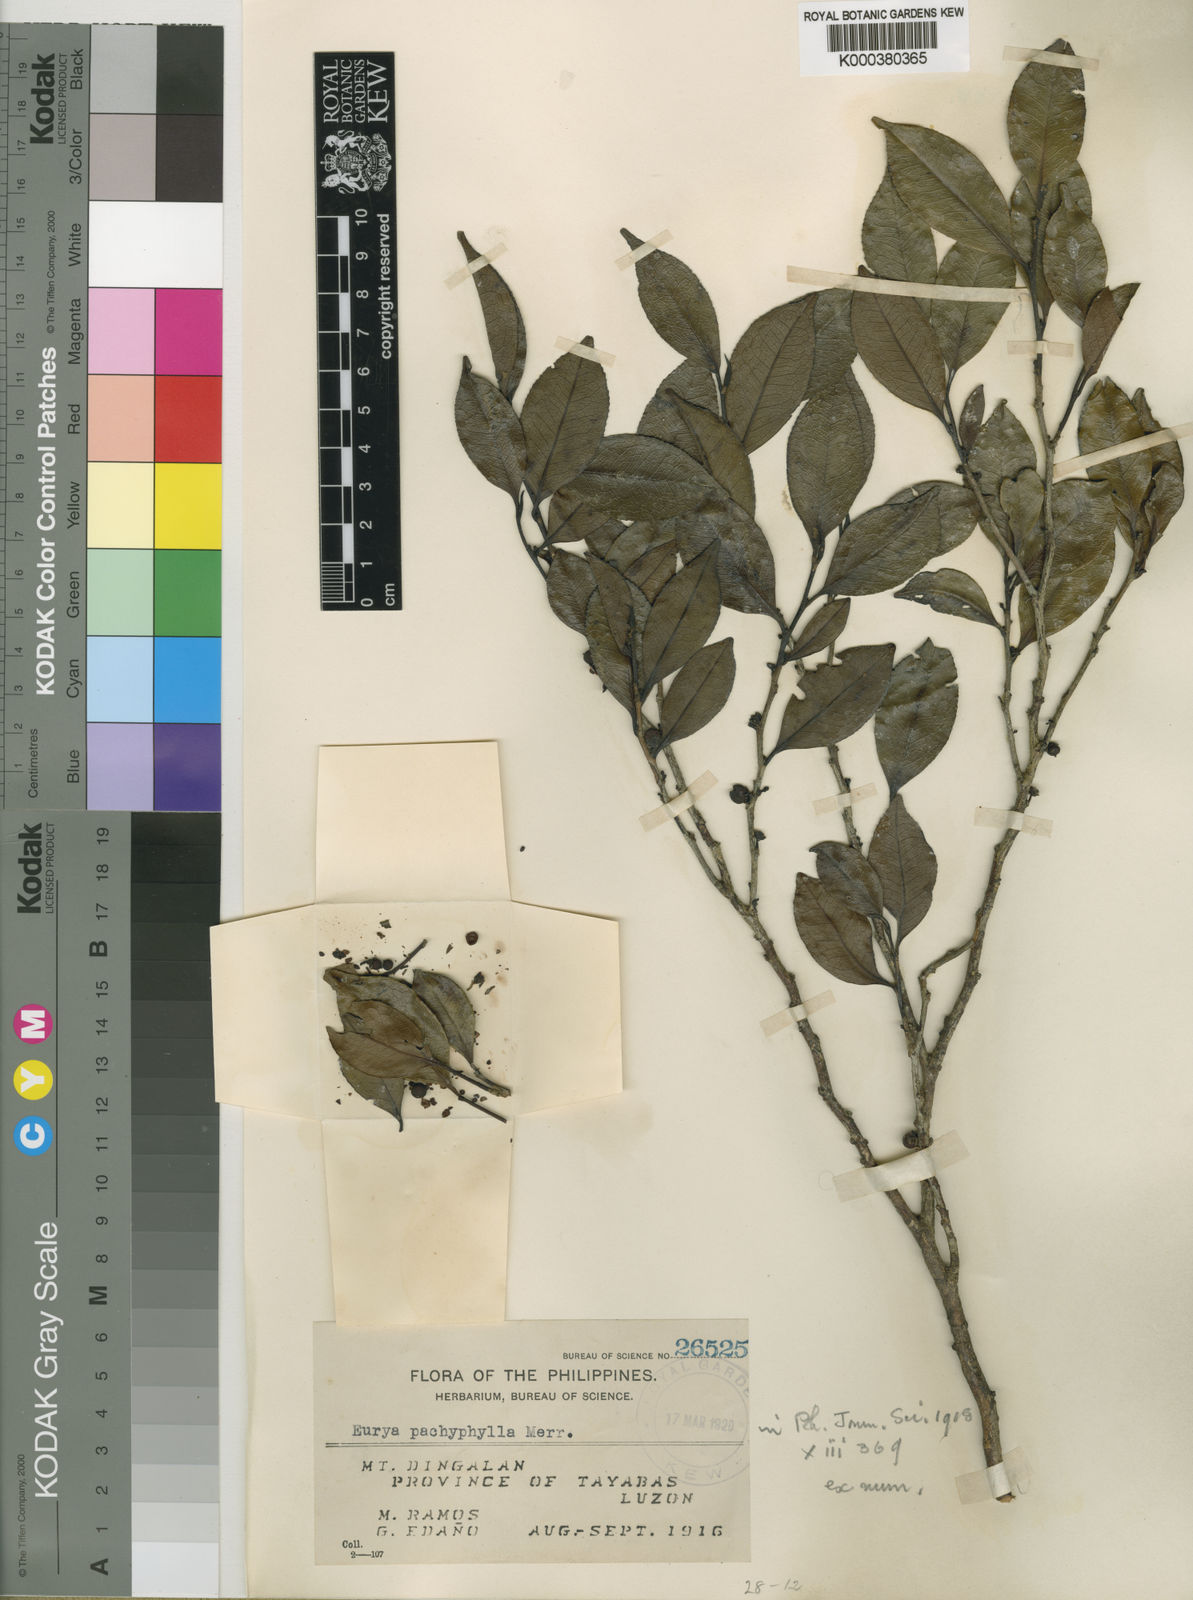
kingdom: Plantae
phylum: Tracheophyta
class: Magnoliopsida
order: Ericales
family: Pentaphylacaceae
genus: Eurya
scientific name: Eurya coriacea
